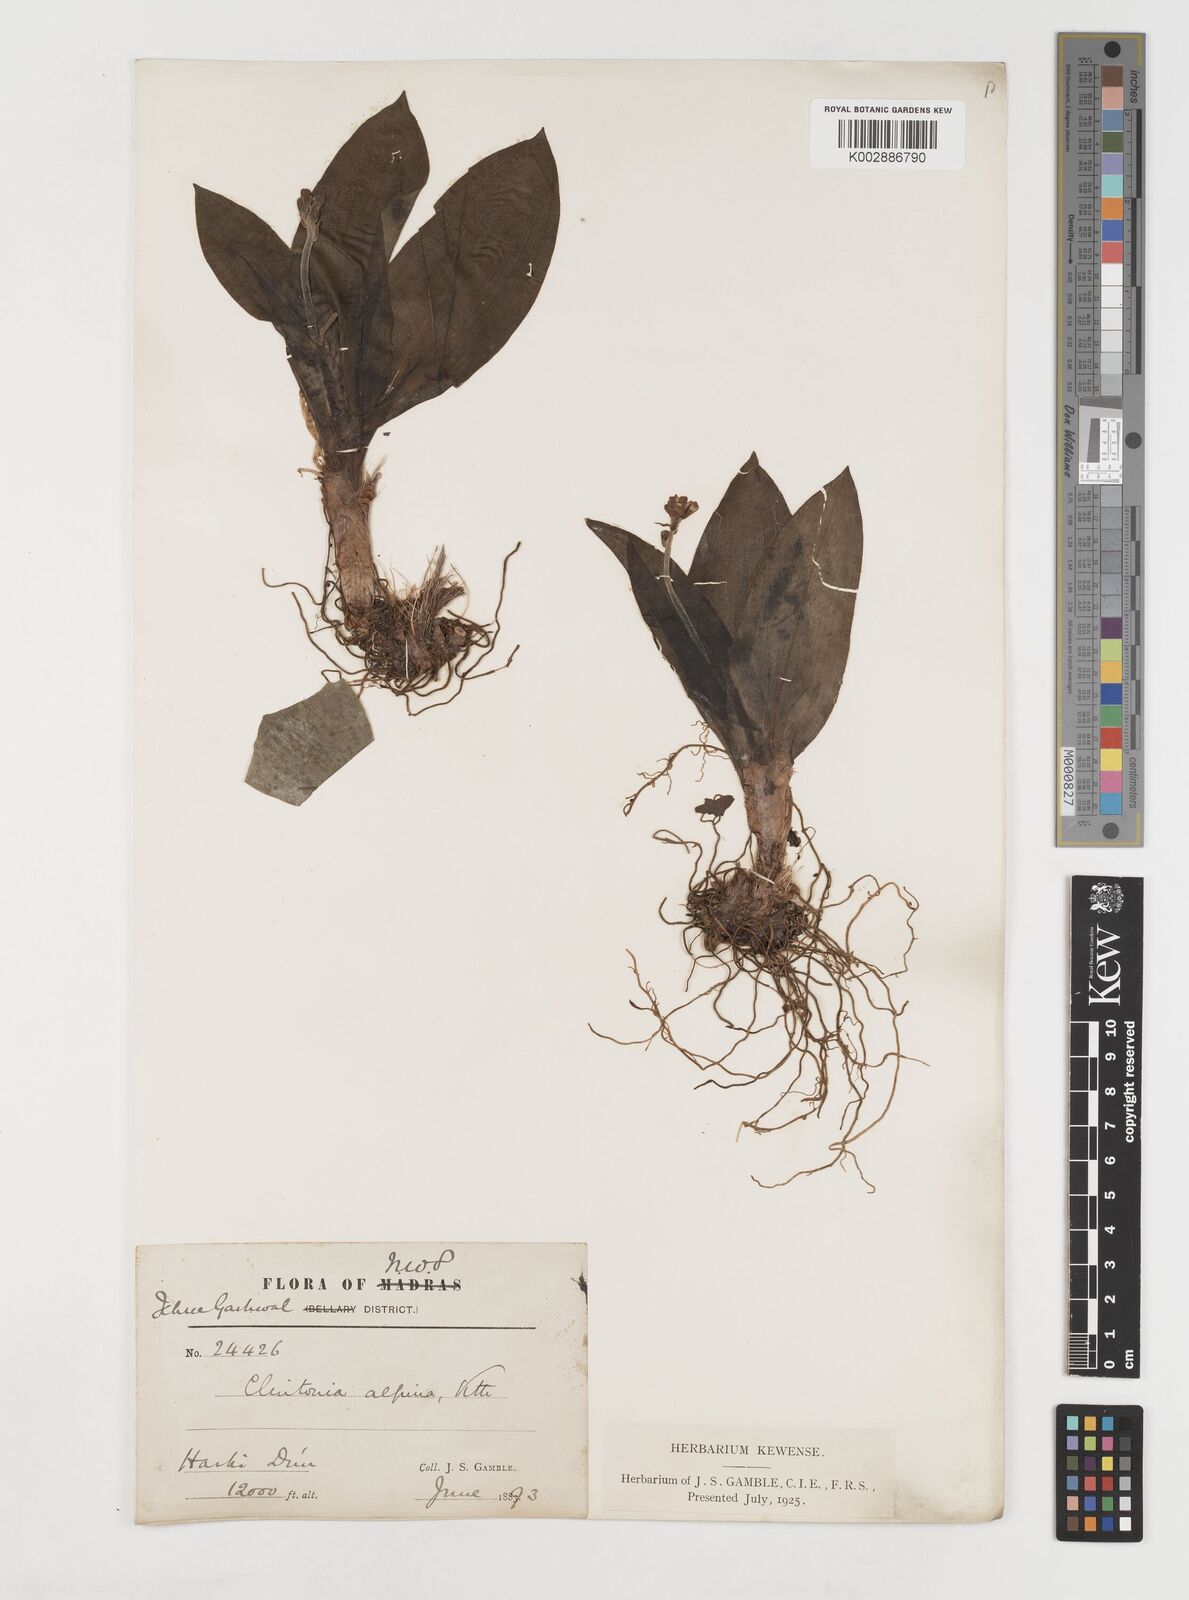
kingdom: Plantae
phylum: Tracheophyta
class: Liliopsida
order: Liliales
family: Liliaceae
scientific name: Liliaceae
